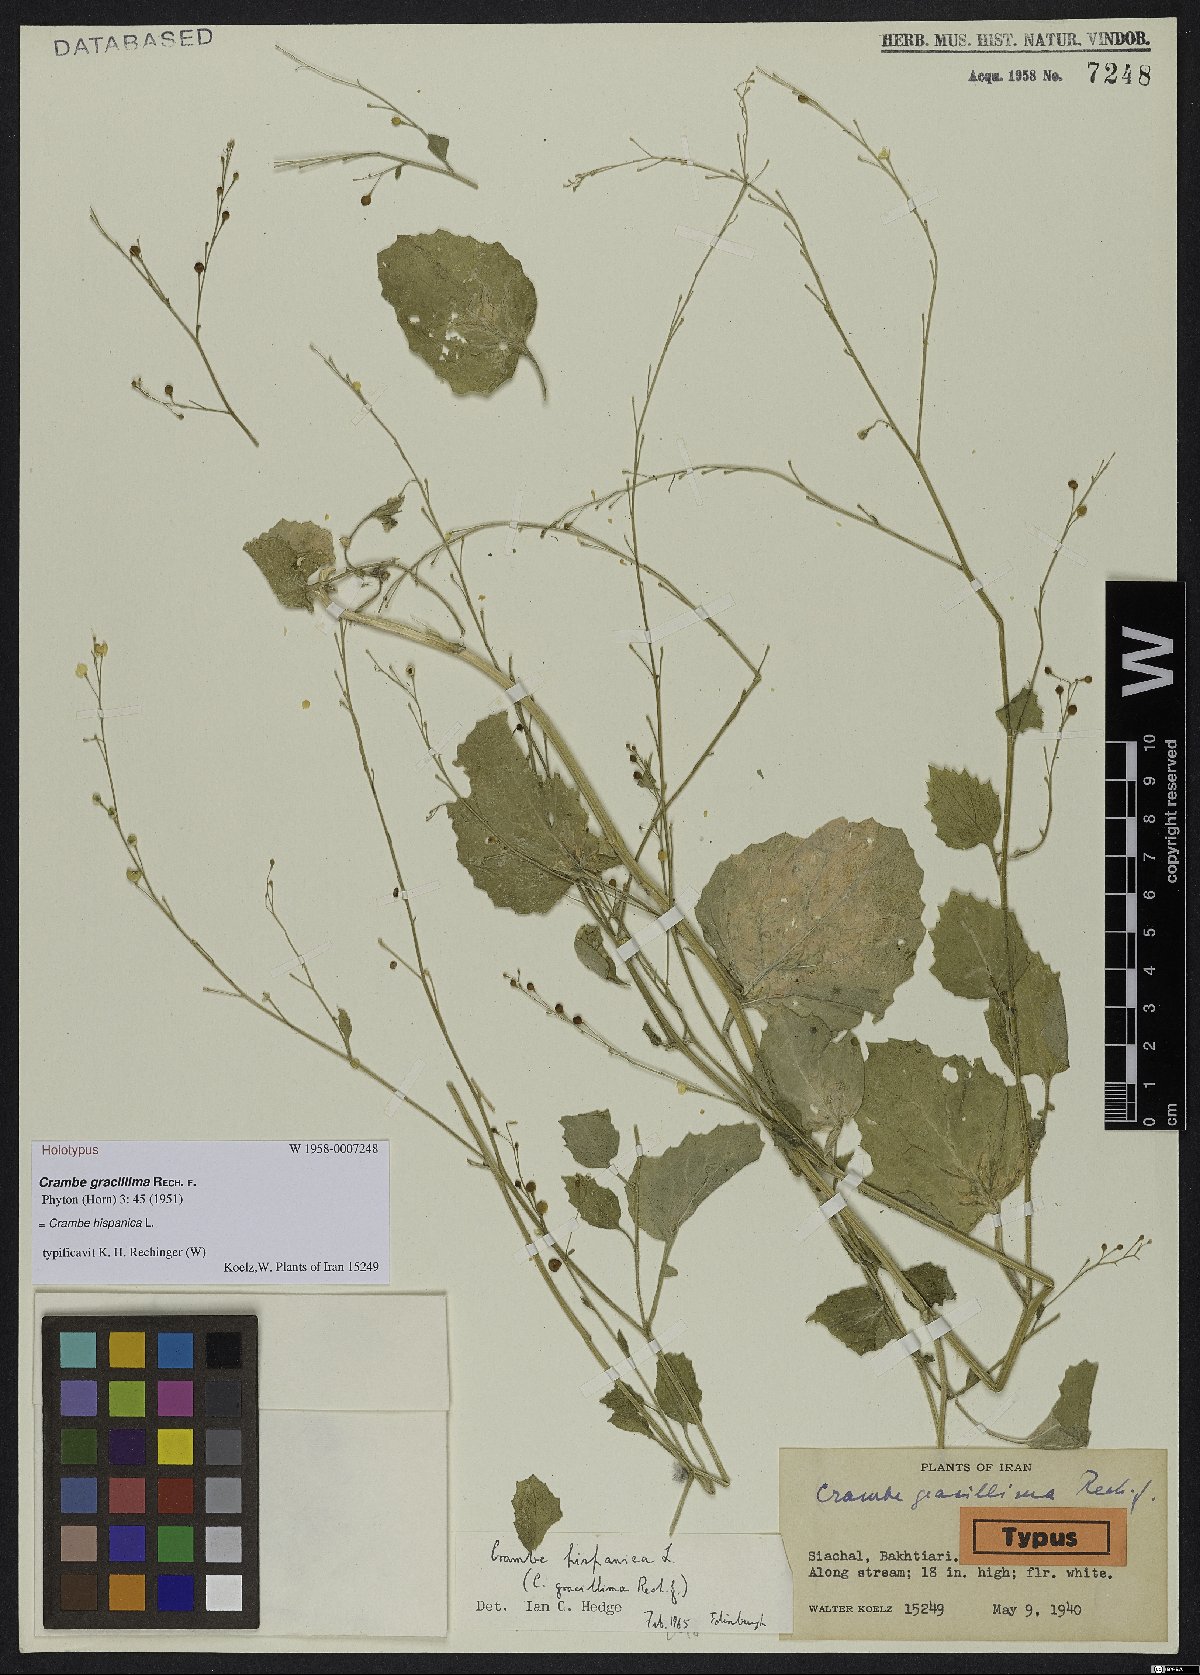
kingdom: Plantae
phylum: Tracheophyta
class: Magnoliopsida
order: Brassicales
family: Brassicaceae
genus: Crambe
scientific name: Crambe hispanica
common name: Abyssinian mustard
